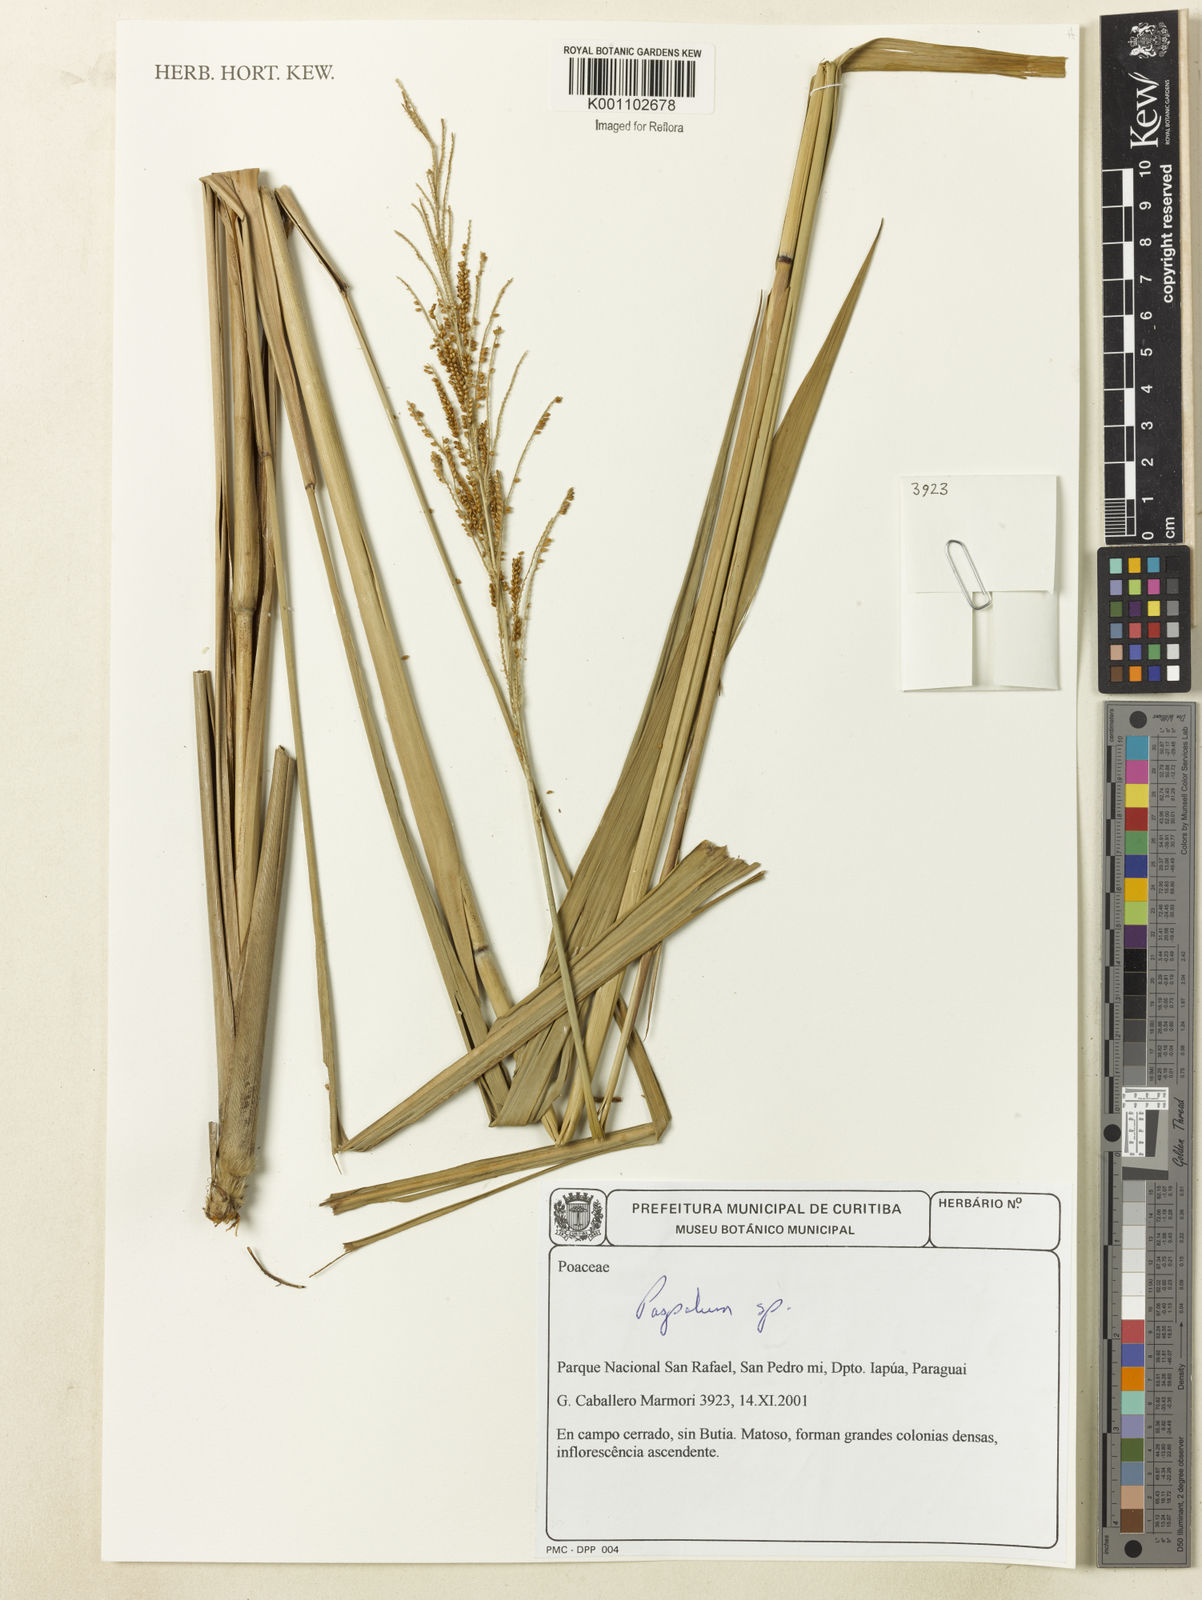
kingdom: Plantae
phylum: Tracheophyta
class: Liliopsida
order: Poales
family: Poaceae
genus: Paspalum
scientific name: Paspalum
